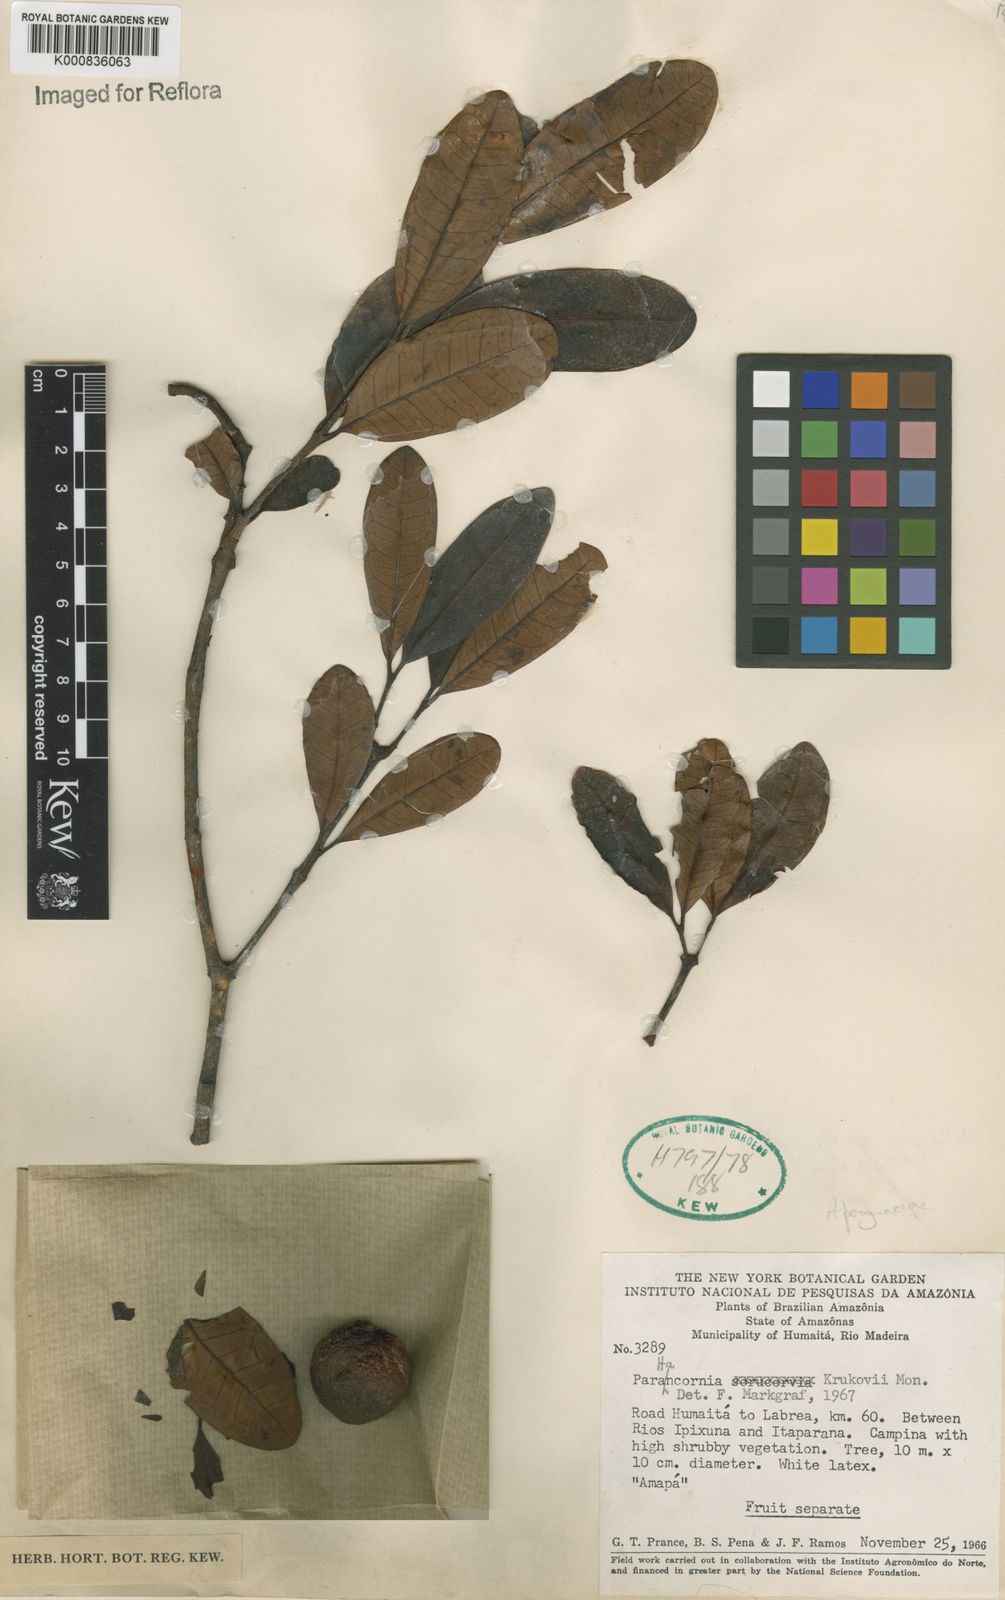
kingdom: Plantae
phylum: Tracheophyta
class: Magnoliopsida
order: Gentianales
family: Apocynaceae
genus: Parahancornia
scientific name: Parahancornia oblonga
